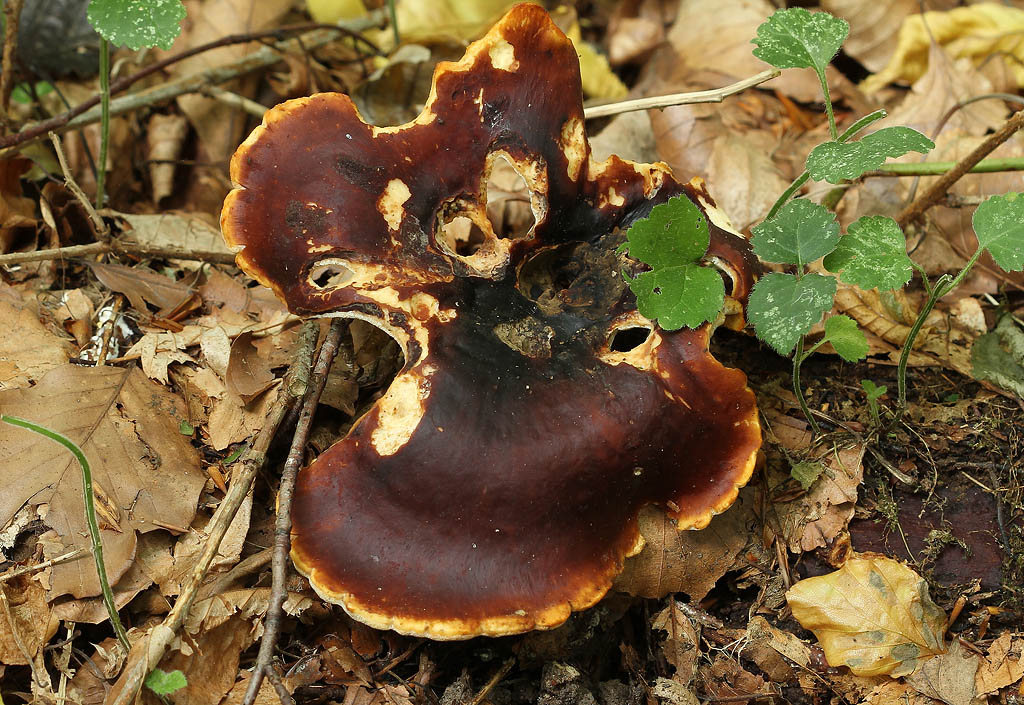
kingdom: Fungi
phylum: Basidiomycota
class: Agaricomycetes
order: Polyporales
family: Polyporaceae
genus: Picipes
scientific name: Picipes badius
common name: kastaniebrun stilkporesvamp
